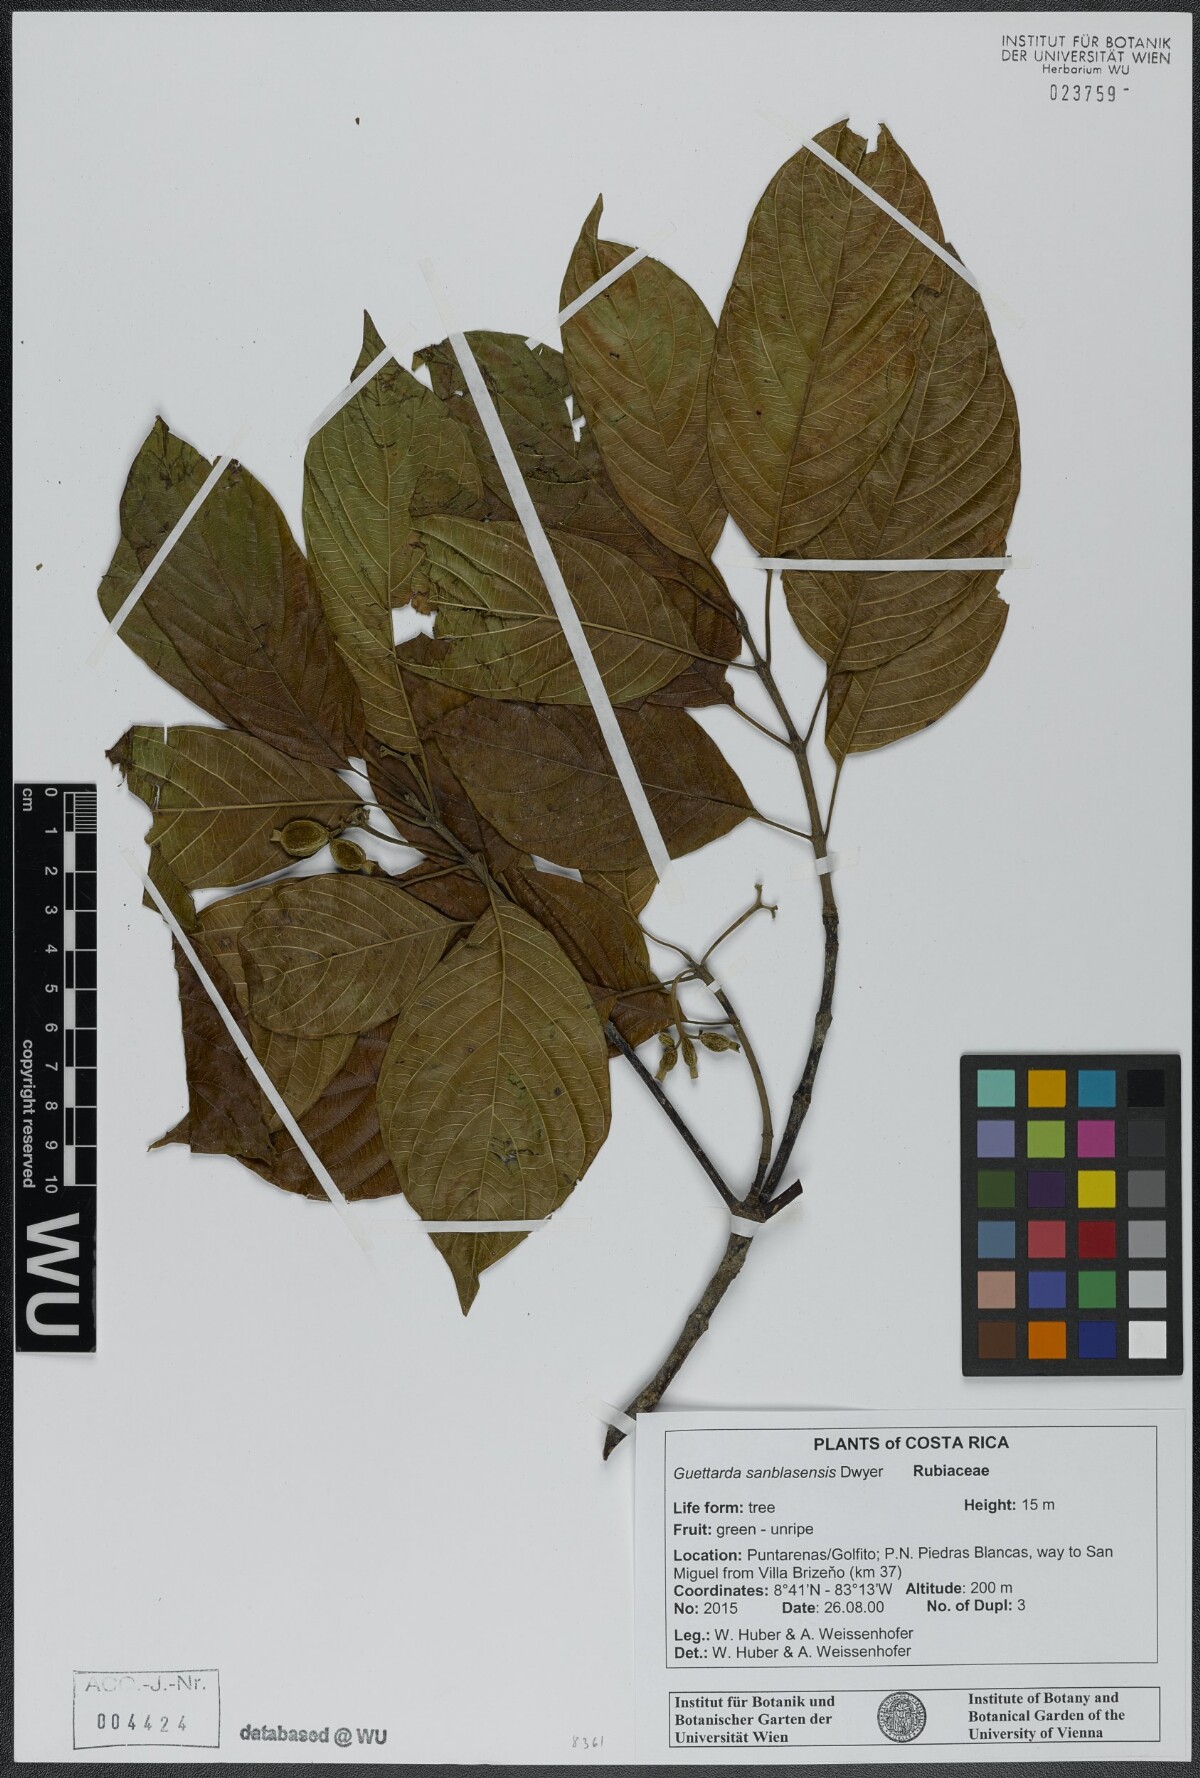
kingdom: Plantae
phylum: Tracheophyta
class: Magnoliopsida
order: Gentianales
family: Rubiaceae
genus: Guettarda
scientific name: Guettarda sanblasensis
